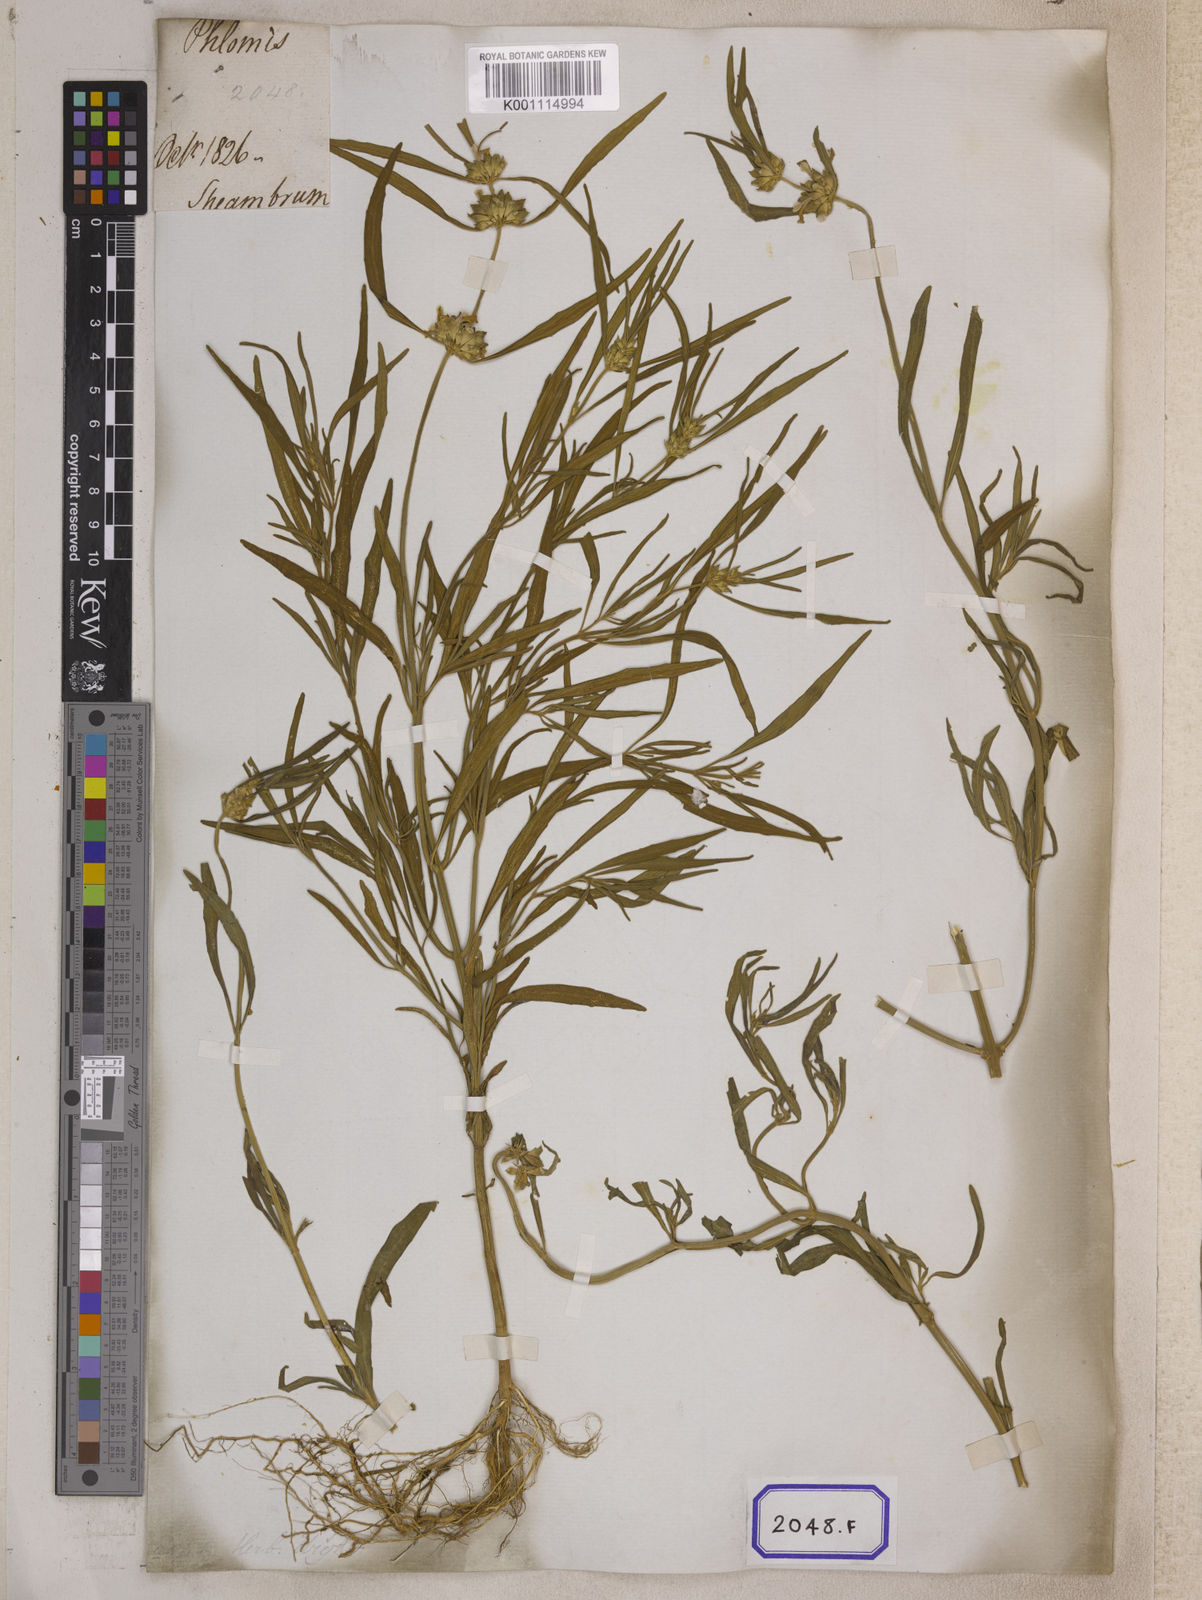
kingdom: Plantae
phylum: Tracheophyta
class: Magnoliopsida
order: Lamiales
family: Lamiaceae
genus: Leucas
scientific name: Leucas lavandulifolia
